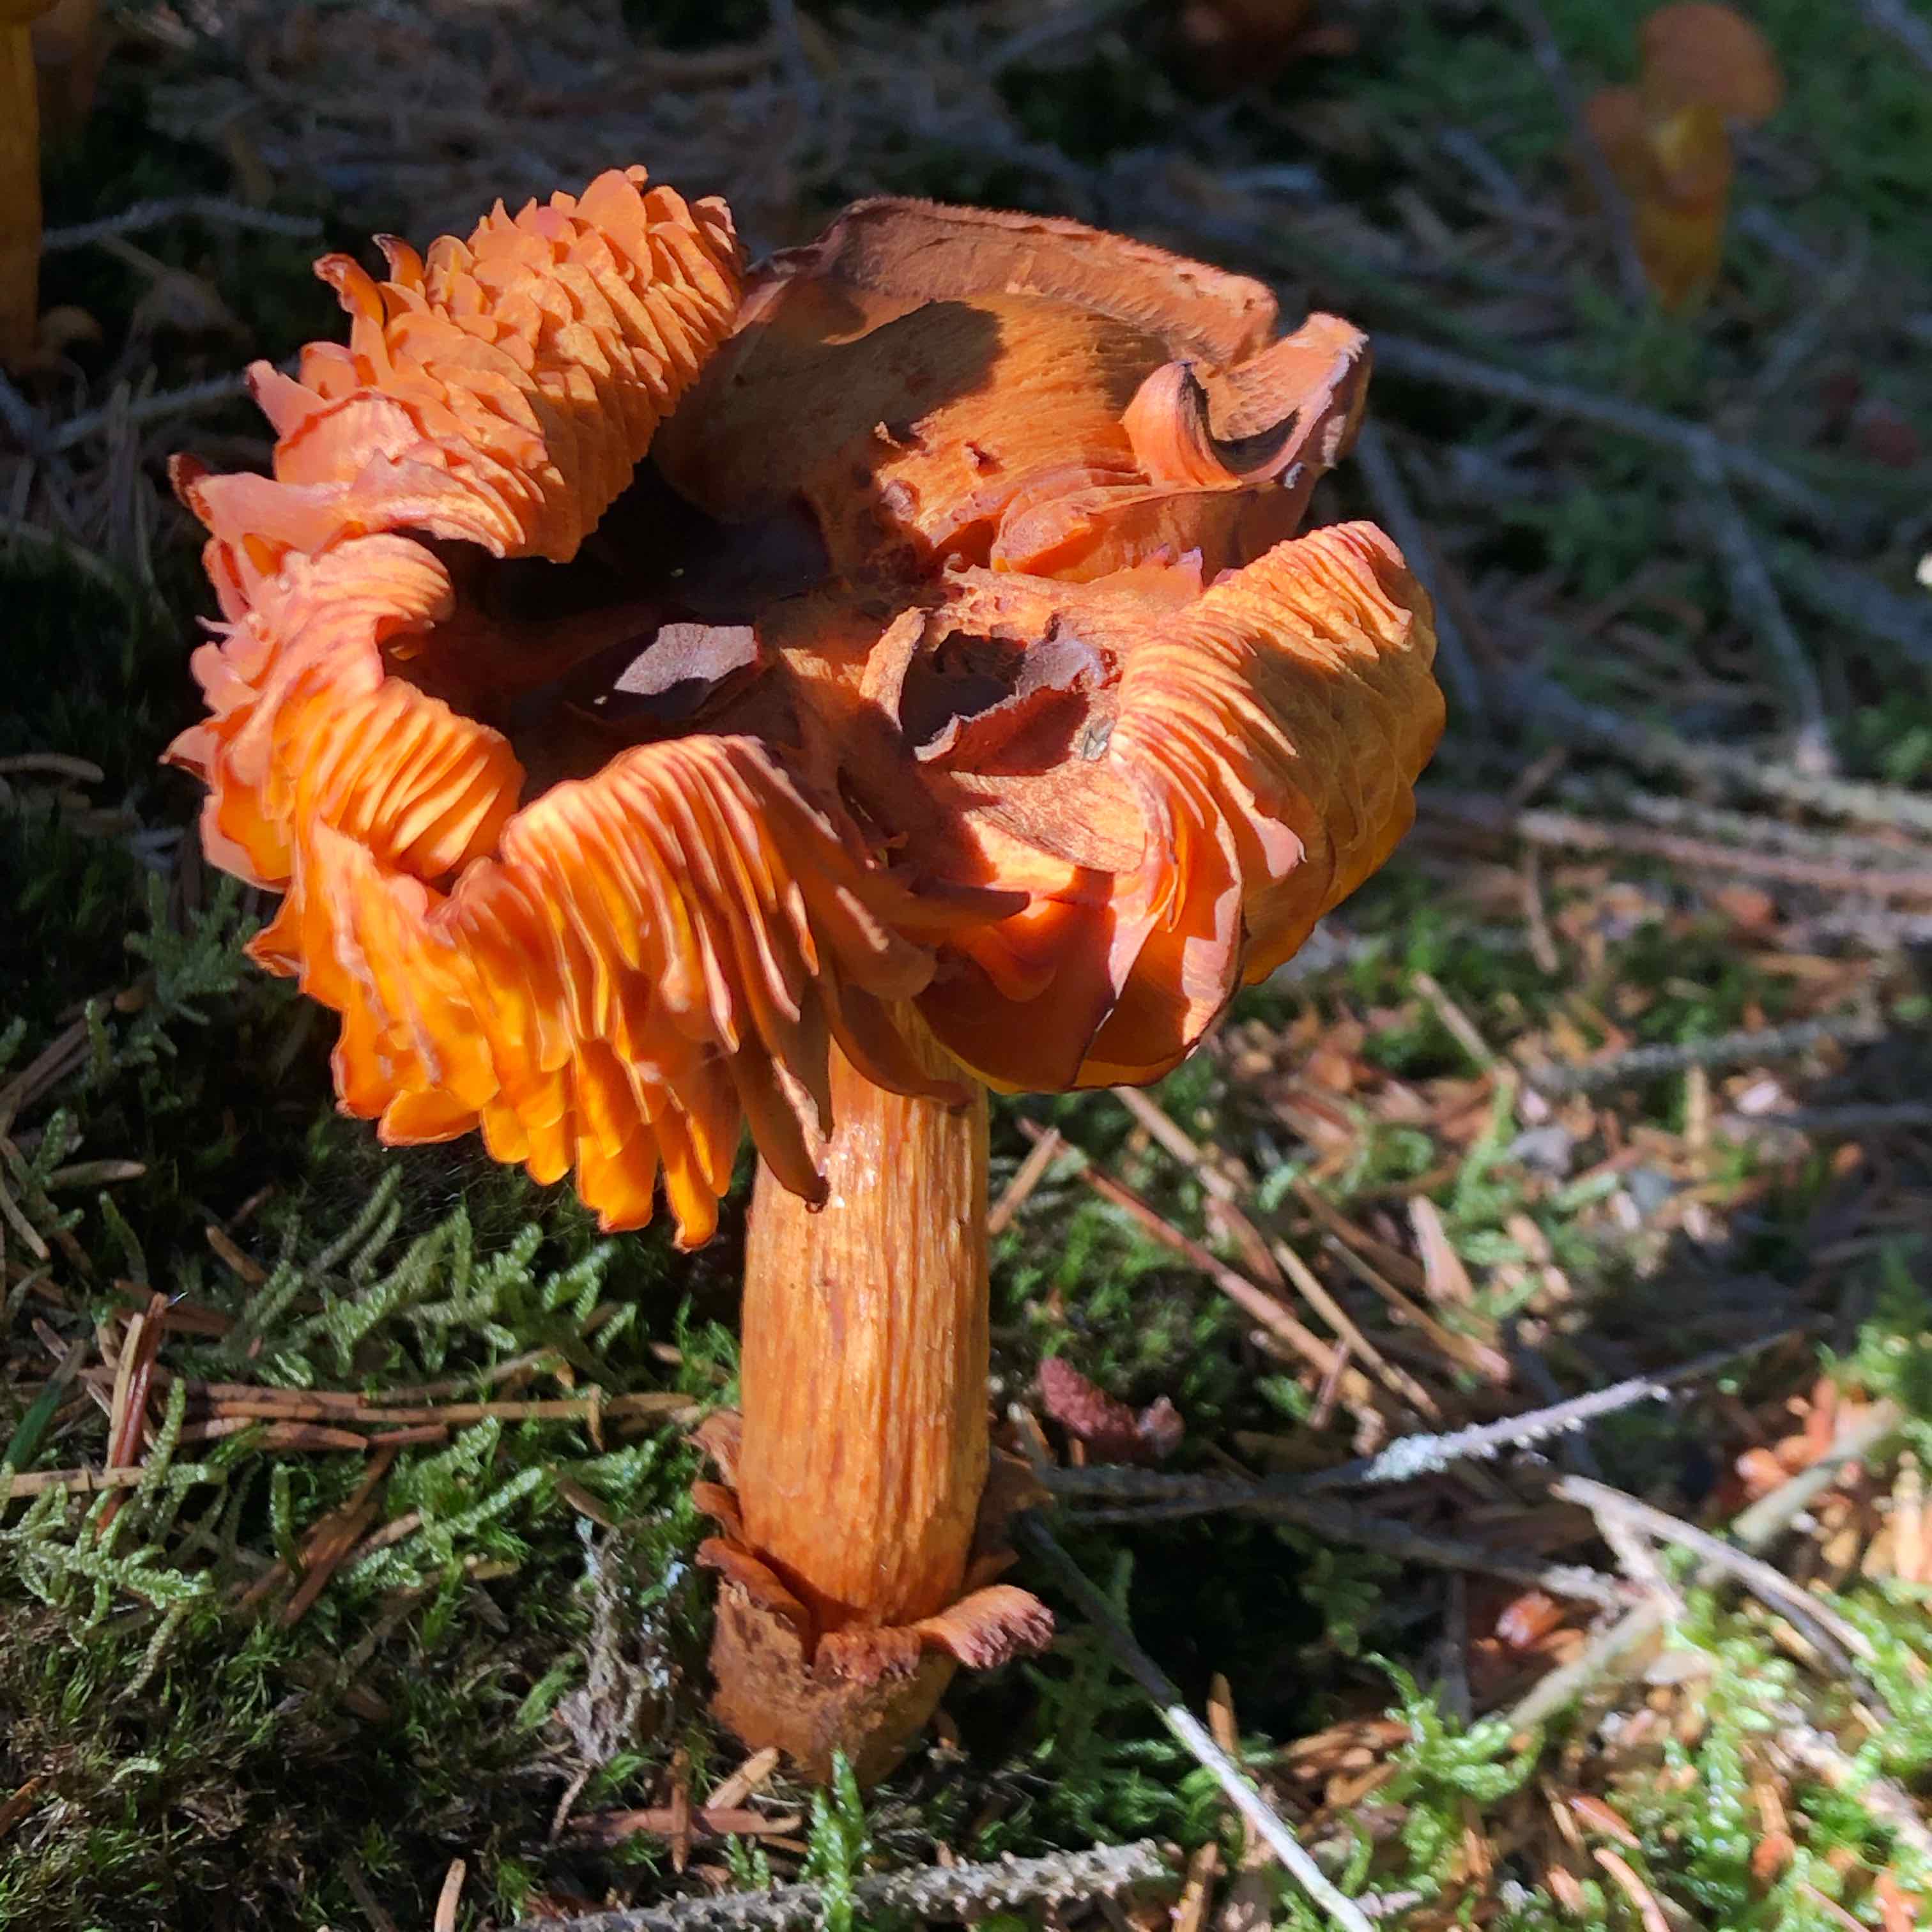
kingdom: Fungi
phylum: Basidiomycota
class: Agaricomycetes
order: Agaricales
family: Cortinariaceae
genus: Aureonarius
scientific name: Aureonarius limonius
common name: orangegul slørhat
